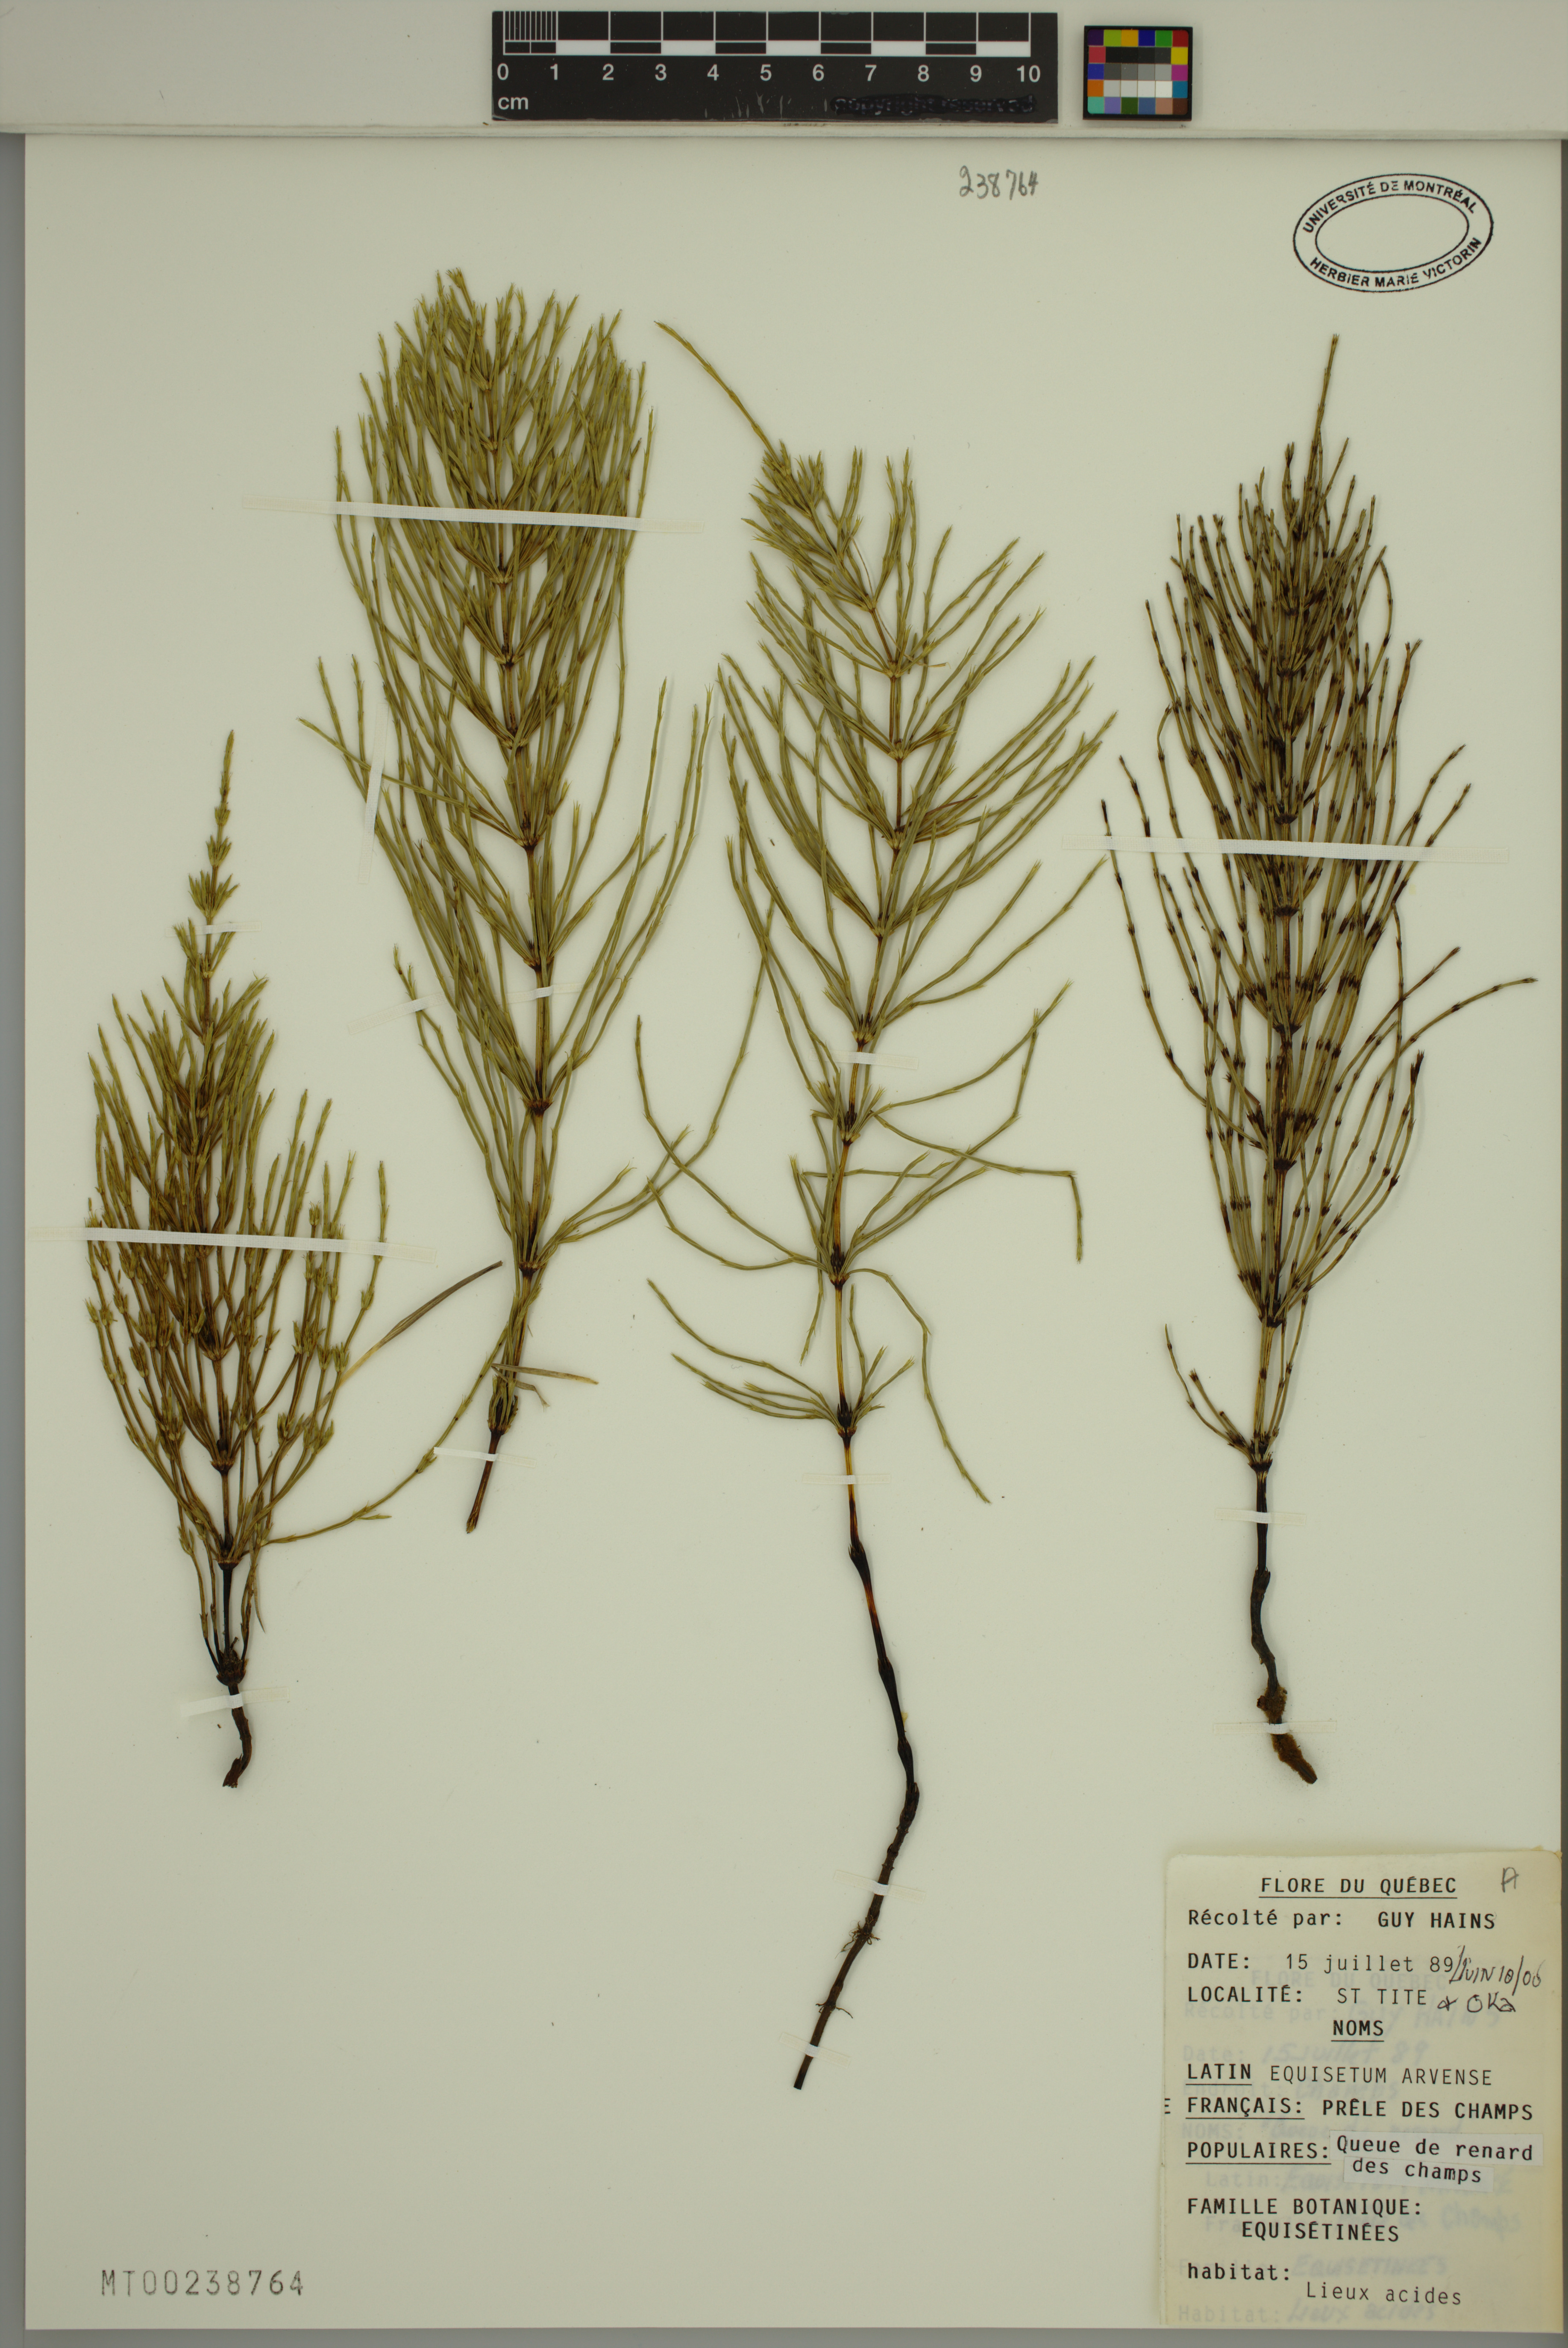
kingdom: Plantae
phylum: Tracheophyta
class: Polypodiopsida
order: Equisetales
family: Equisetaceae
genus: Equisetum
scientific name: Equisetum arvense
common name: Field horsetail
